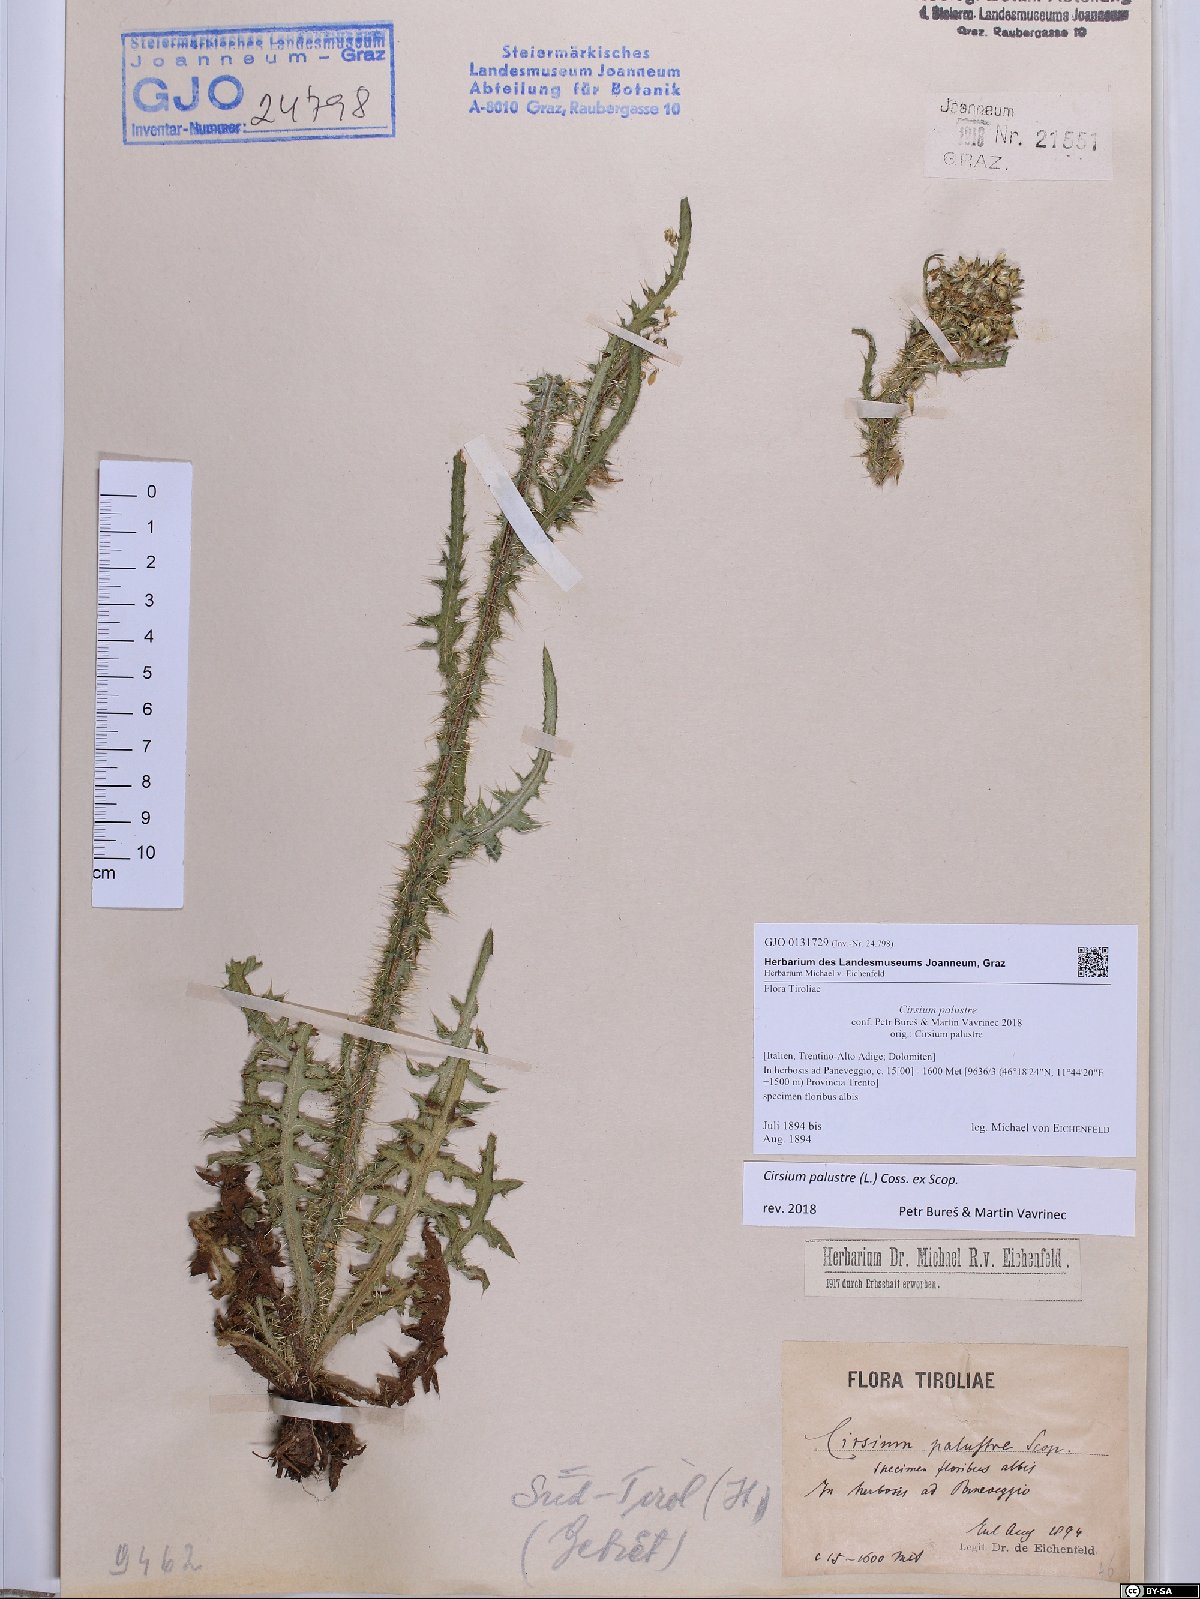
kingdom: Plantae
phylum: Tracheophyta
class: Magnoliopsida
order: Asterales
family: Asteraceae
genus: Cirsium
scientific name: Cirsium palustre
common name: Marsh thistle
